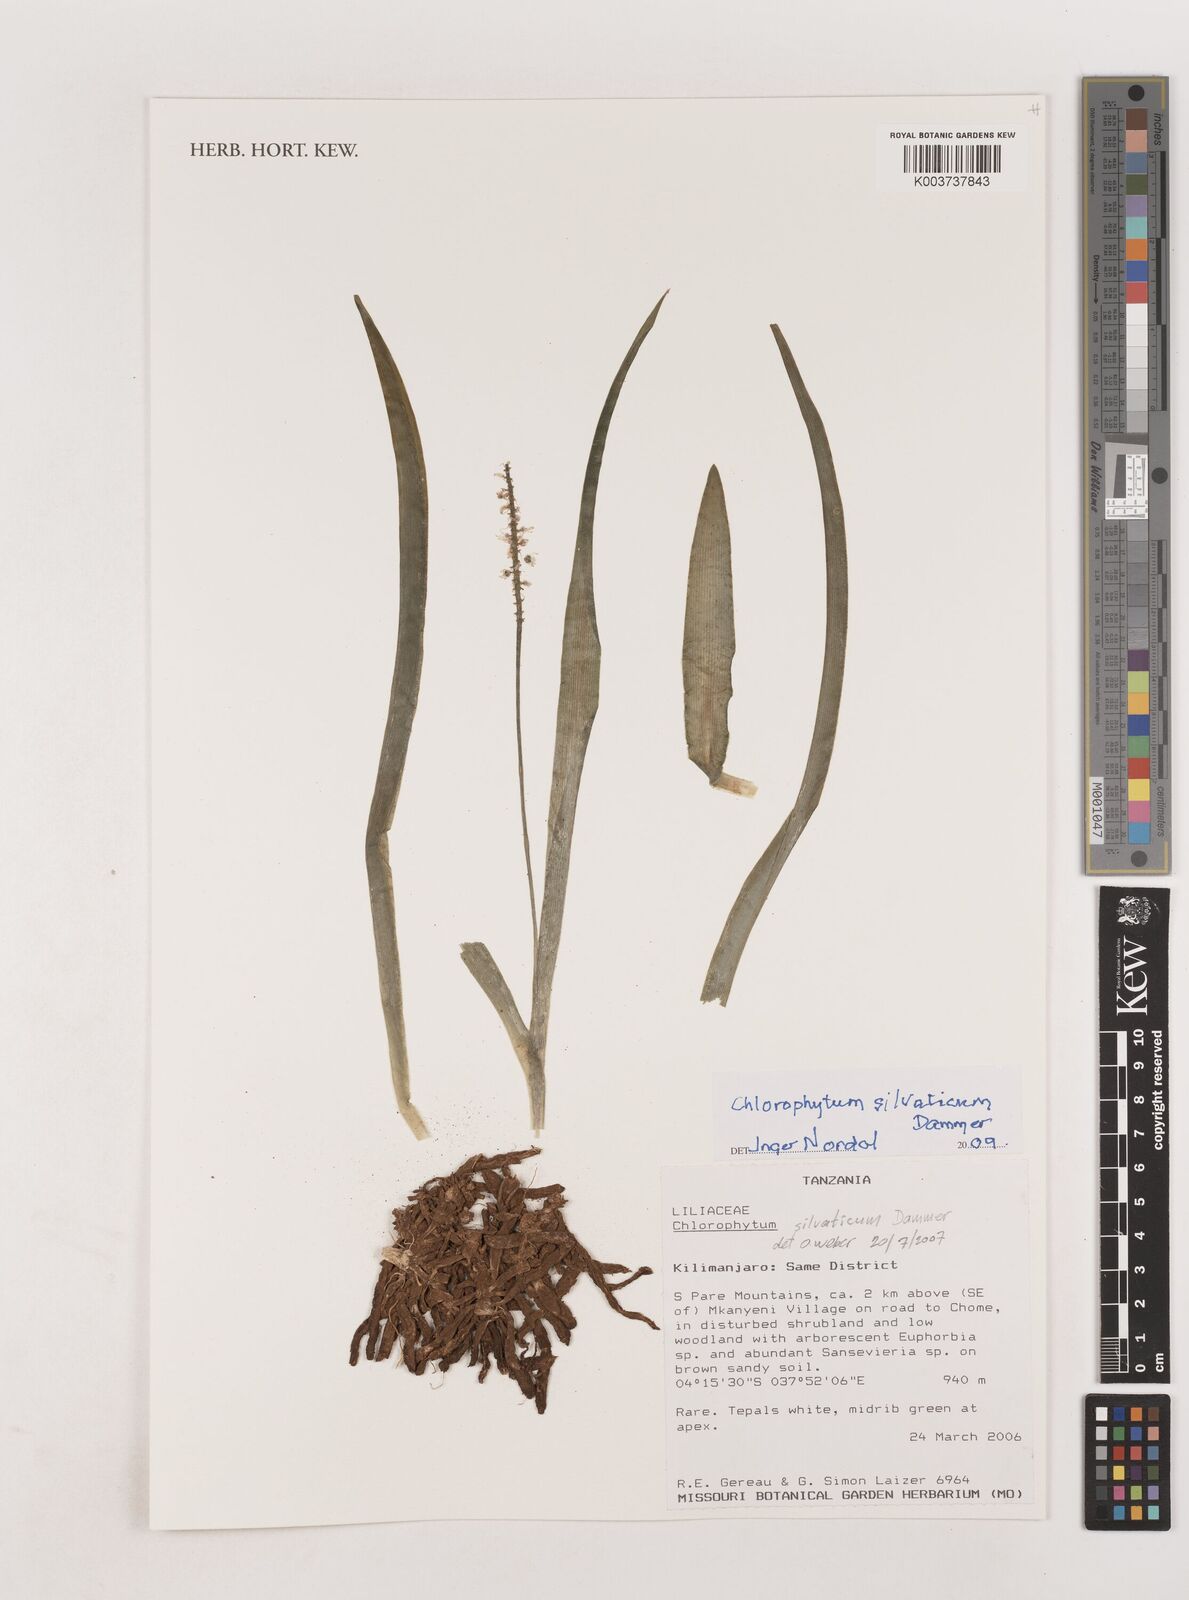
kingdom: Plantae
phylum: Tracheophyta
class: Liliopsida
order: Asparagales
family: Asparagaceae
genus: Chlorophytum
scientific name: Chlorophytum africanum
